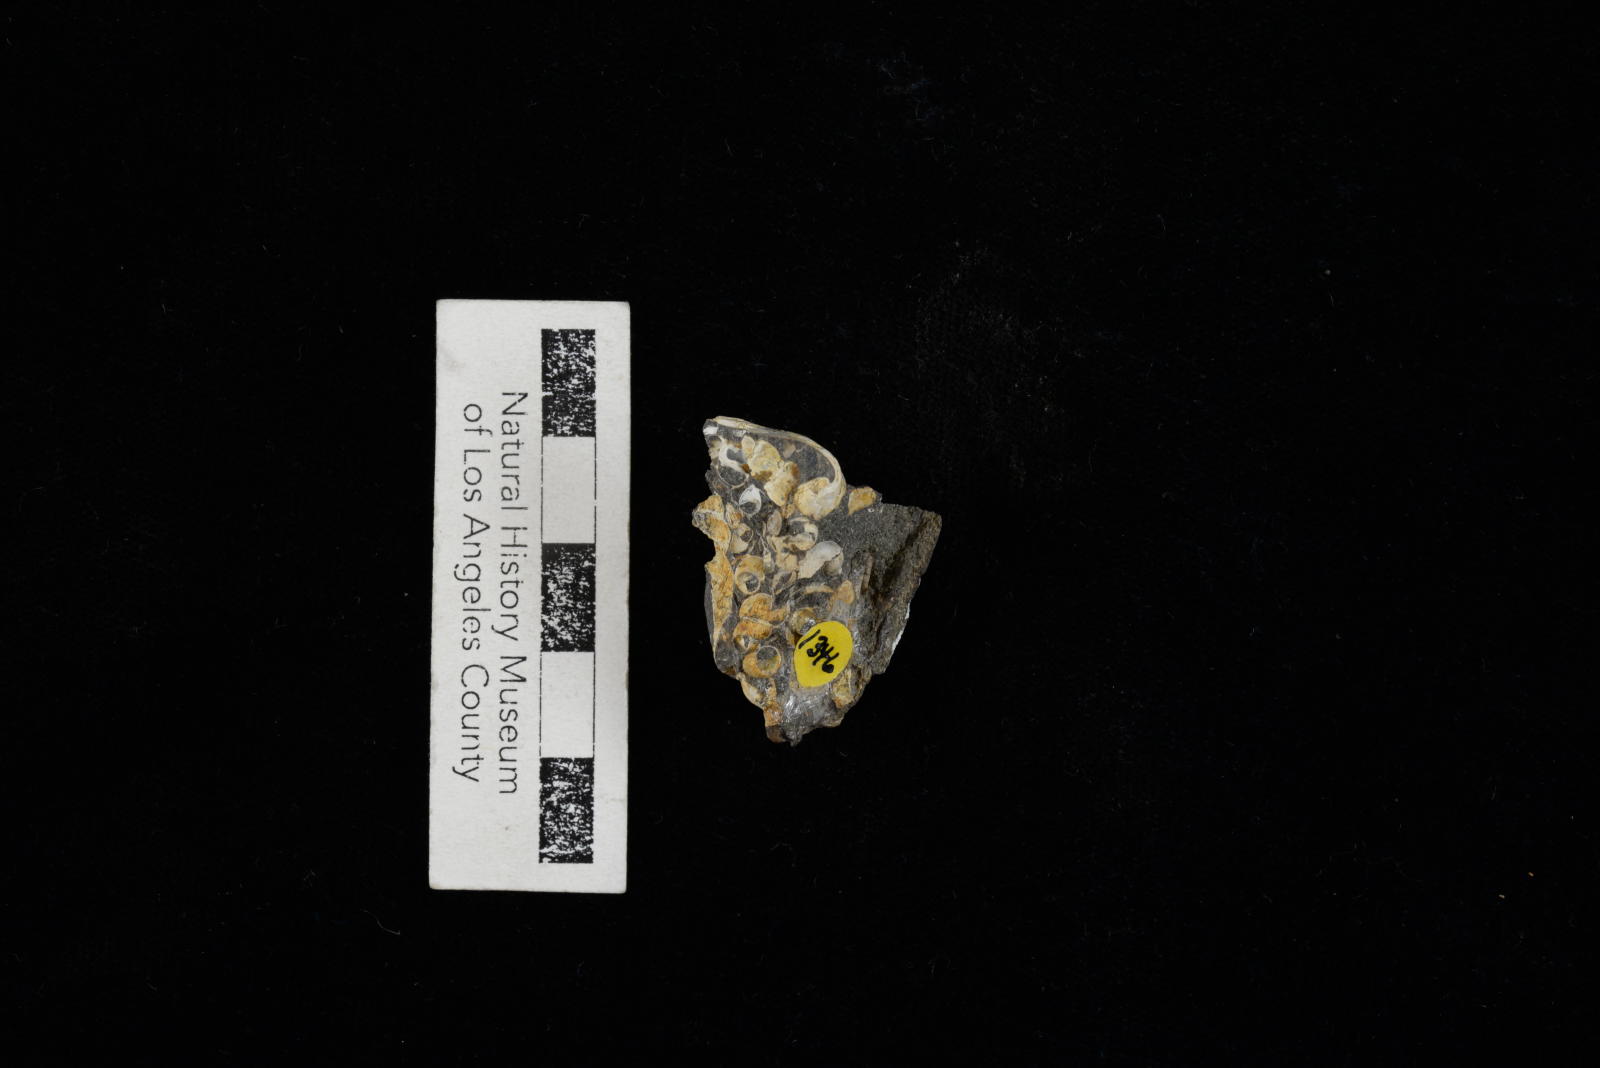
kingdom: Animalia
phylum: Mollusca
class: Gastropoda
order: Littorinimorpha
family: Aporrhaidae
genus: Latiala
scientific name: Latiala sigma
